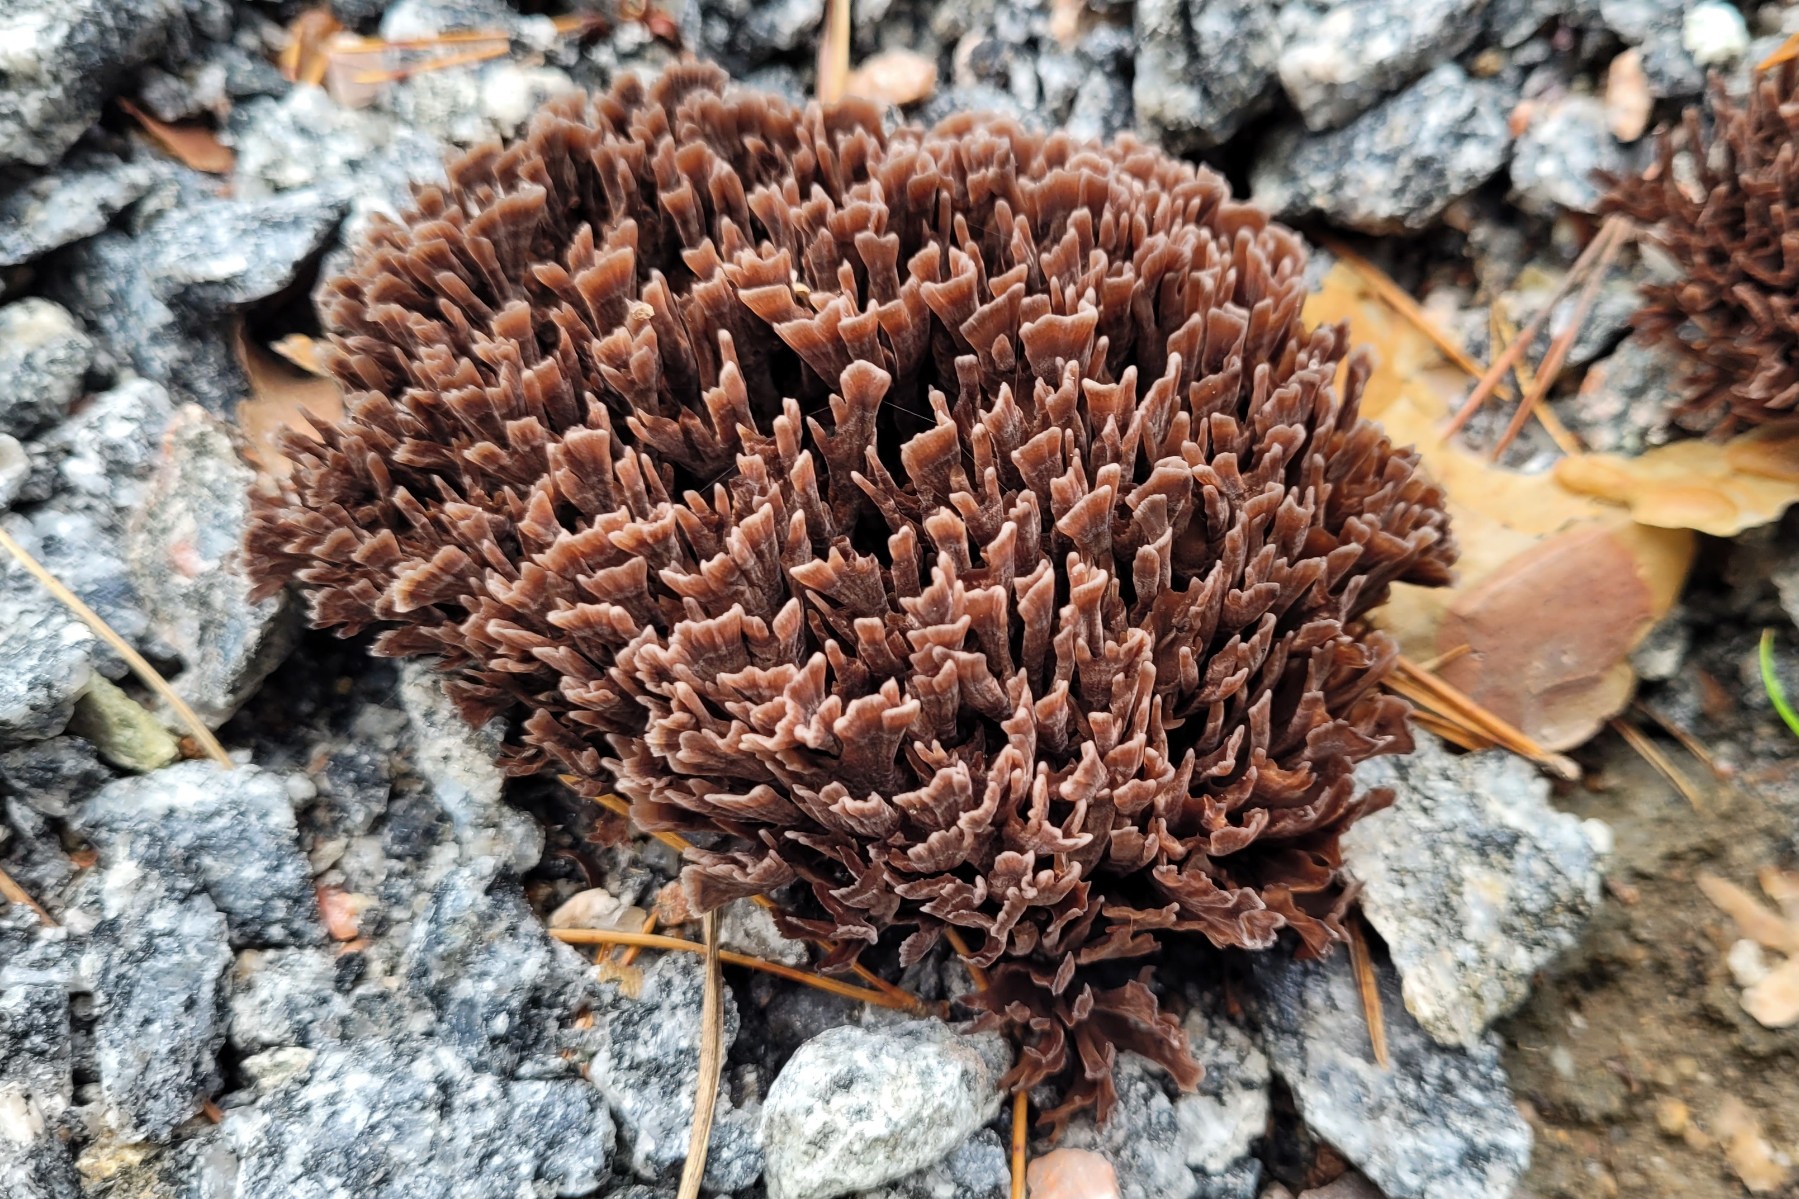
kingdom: Fungi
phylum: Basidiomycota
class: Agaricomycetes
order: Thelephorales
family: Thelephoraceae
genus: Thelephora
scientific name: Thelephora palmata
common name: grenet frynsesvamp
